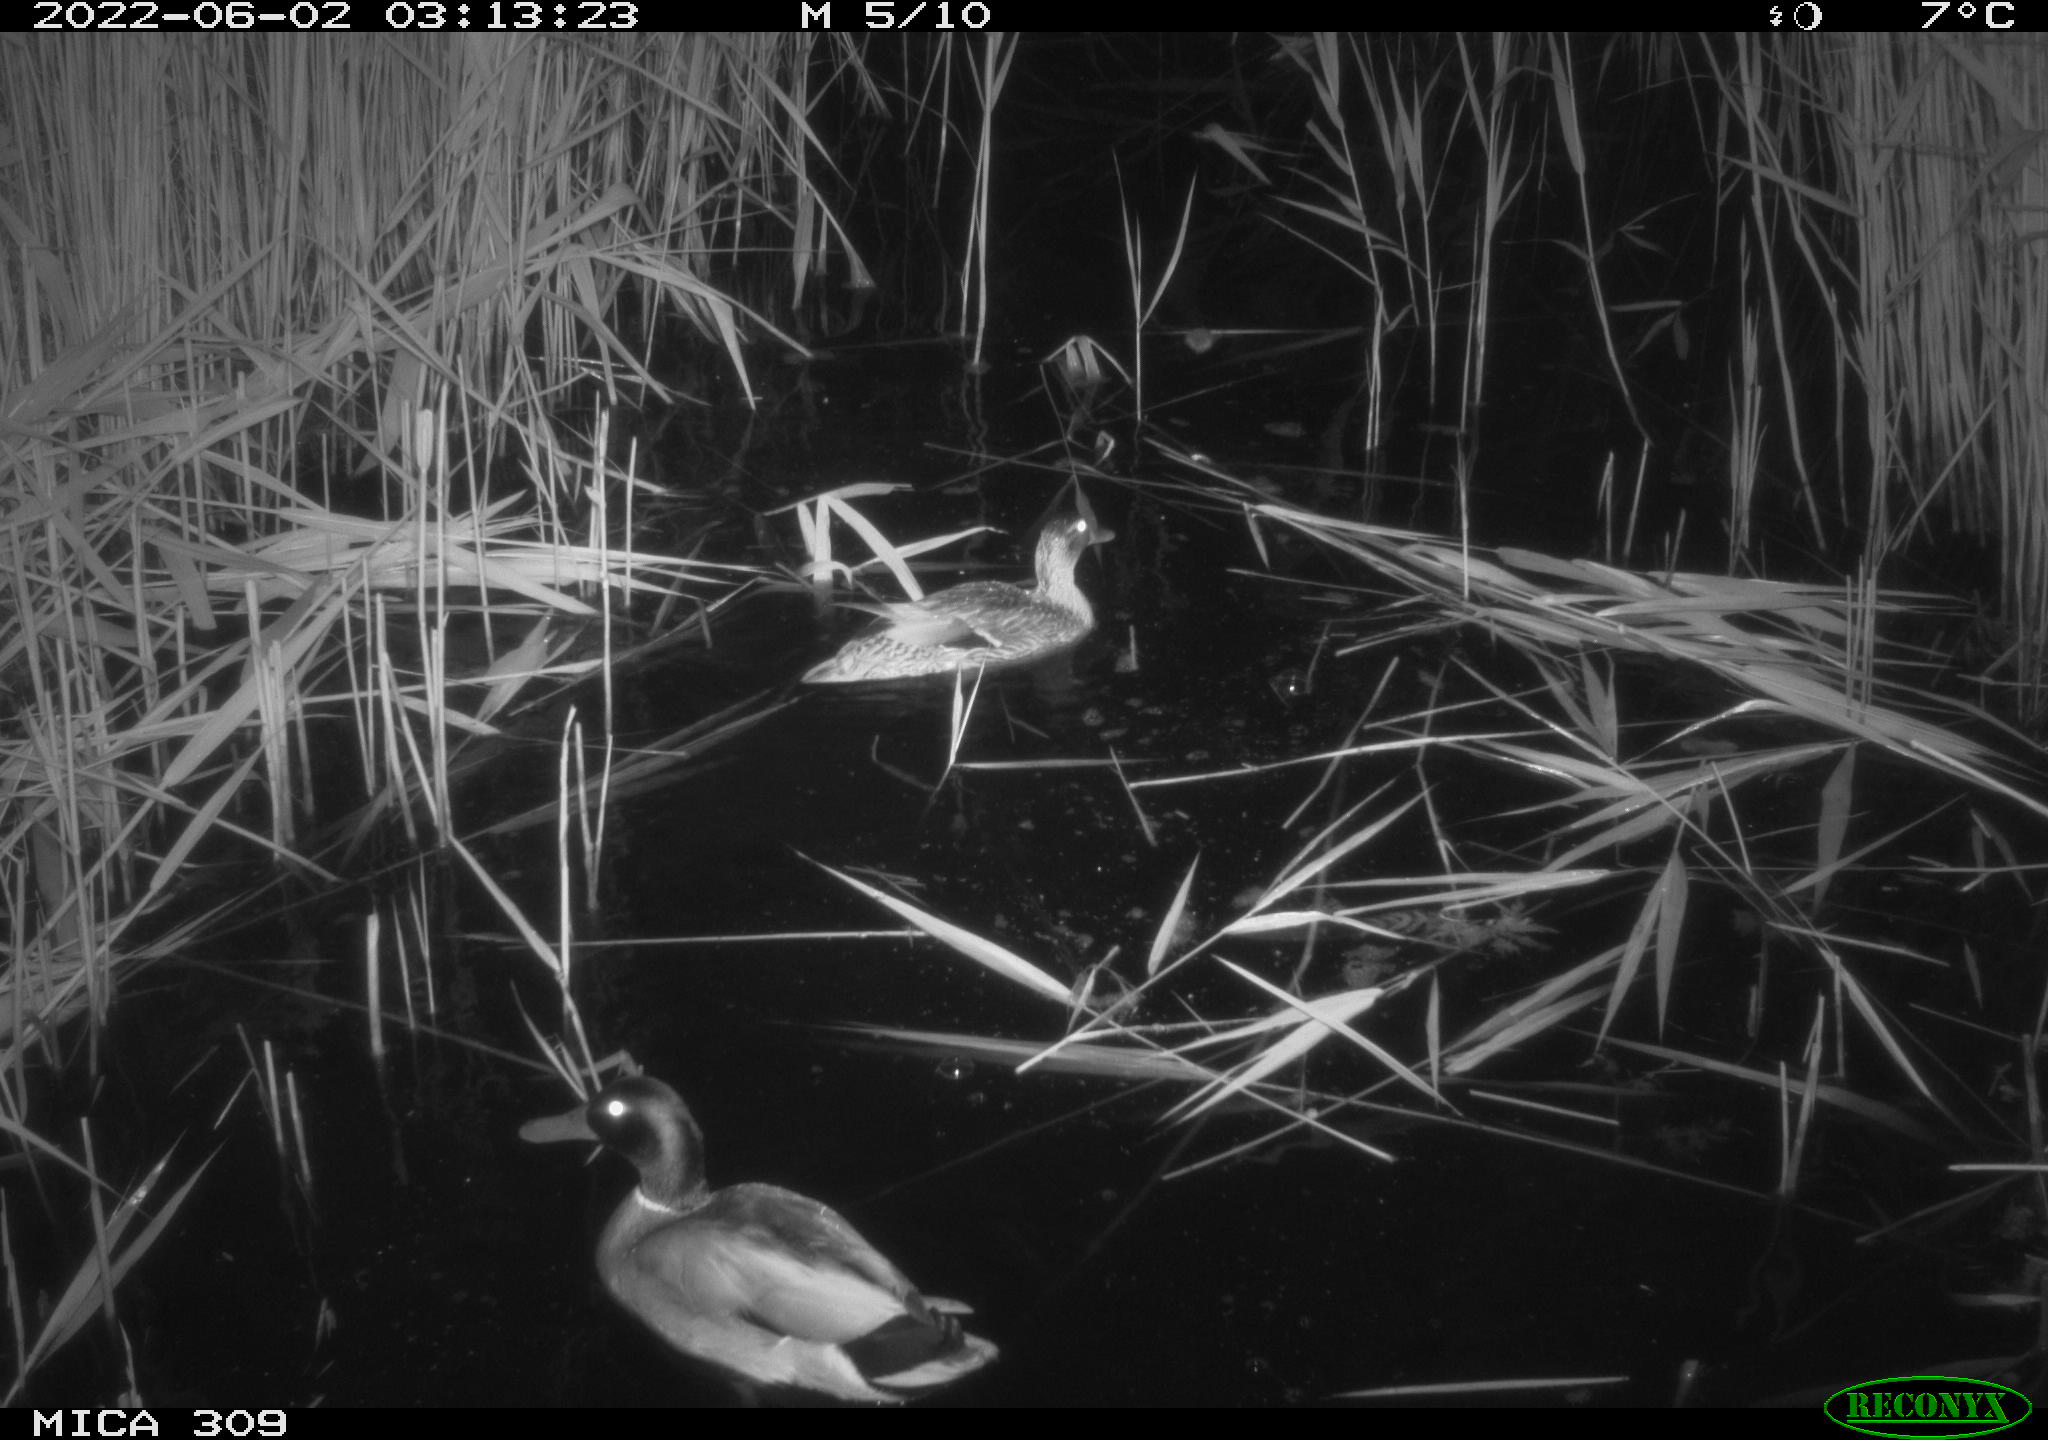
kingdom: Animalia
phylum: Chordata
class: Aves
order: Anseriformes
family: Anatidae
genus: Anas
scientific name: Anas platyrhynchos
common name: Mallard
